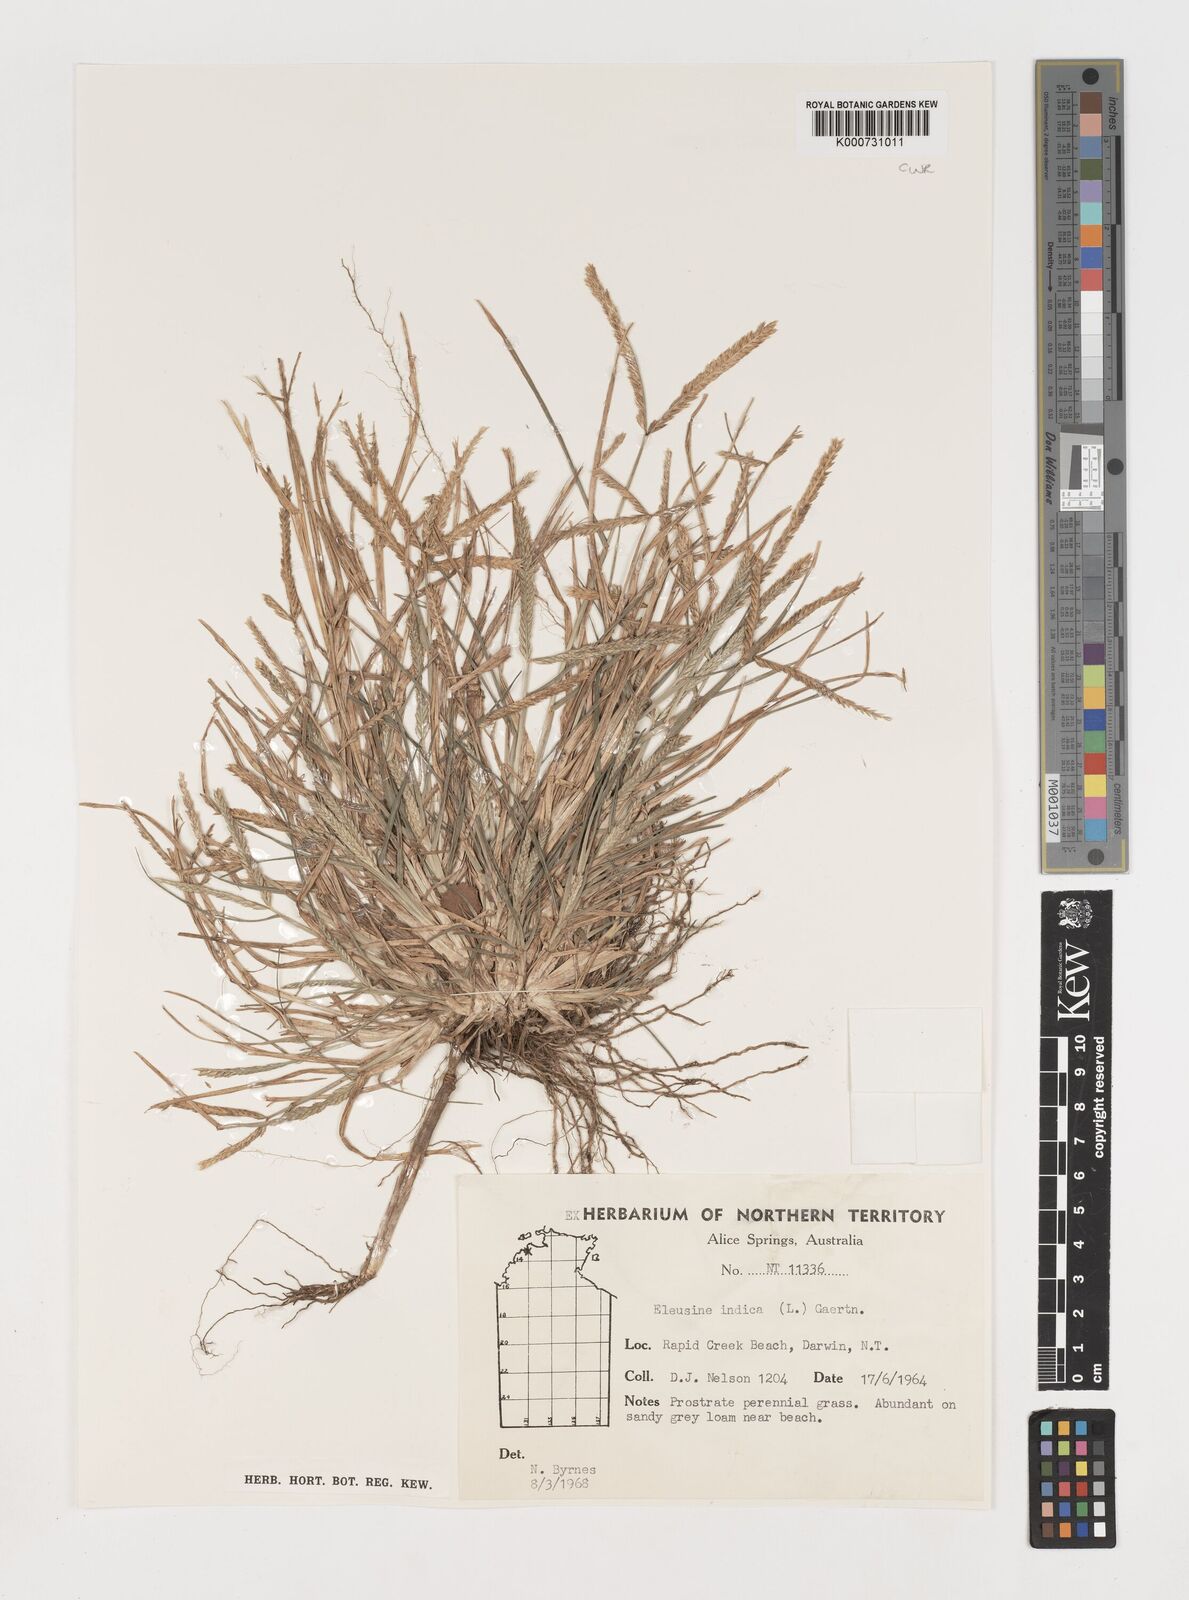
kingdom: Plantae
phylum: Tracheophyta
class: Liliopsida
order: Poales
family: Poaceae
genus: Eleusine
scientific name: Eleusine indica
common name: Yard-grass
